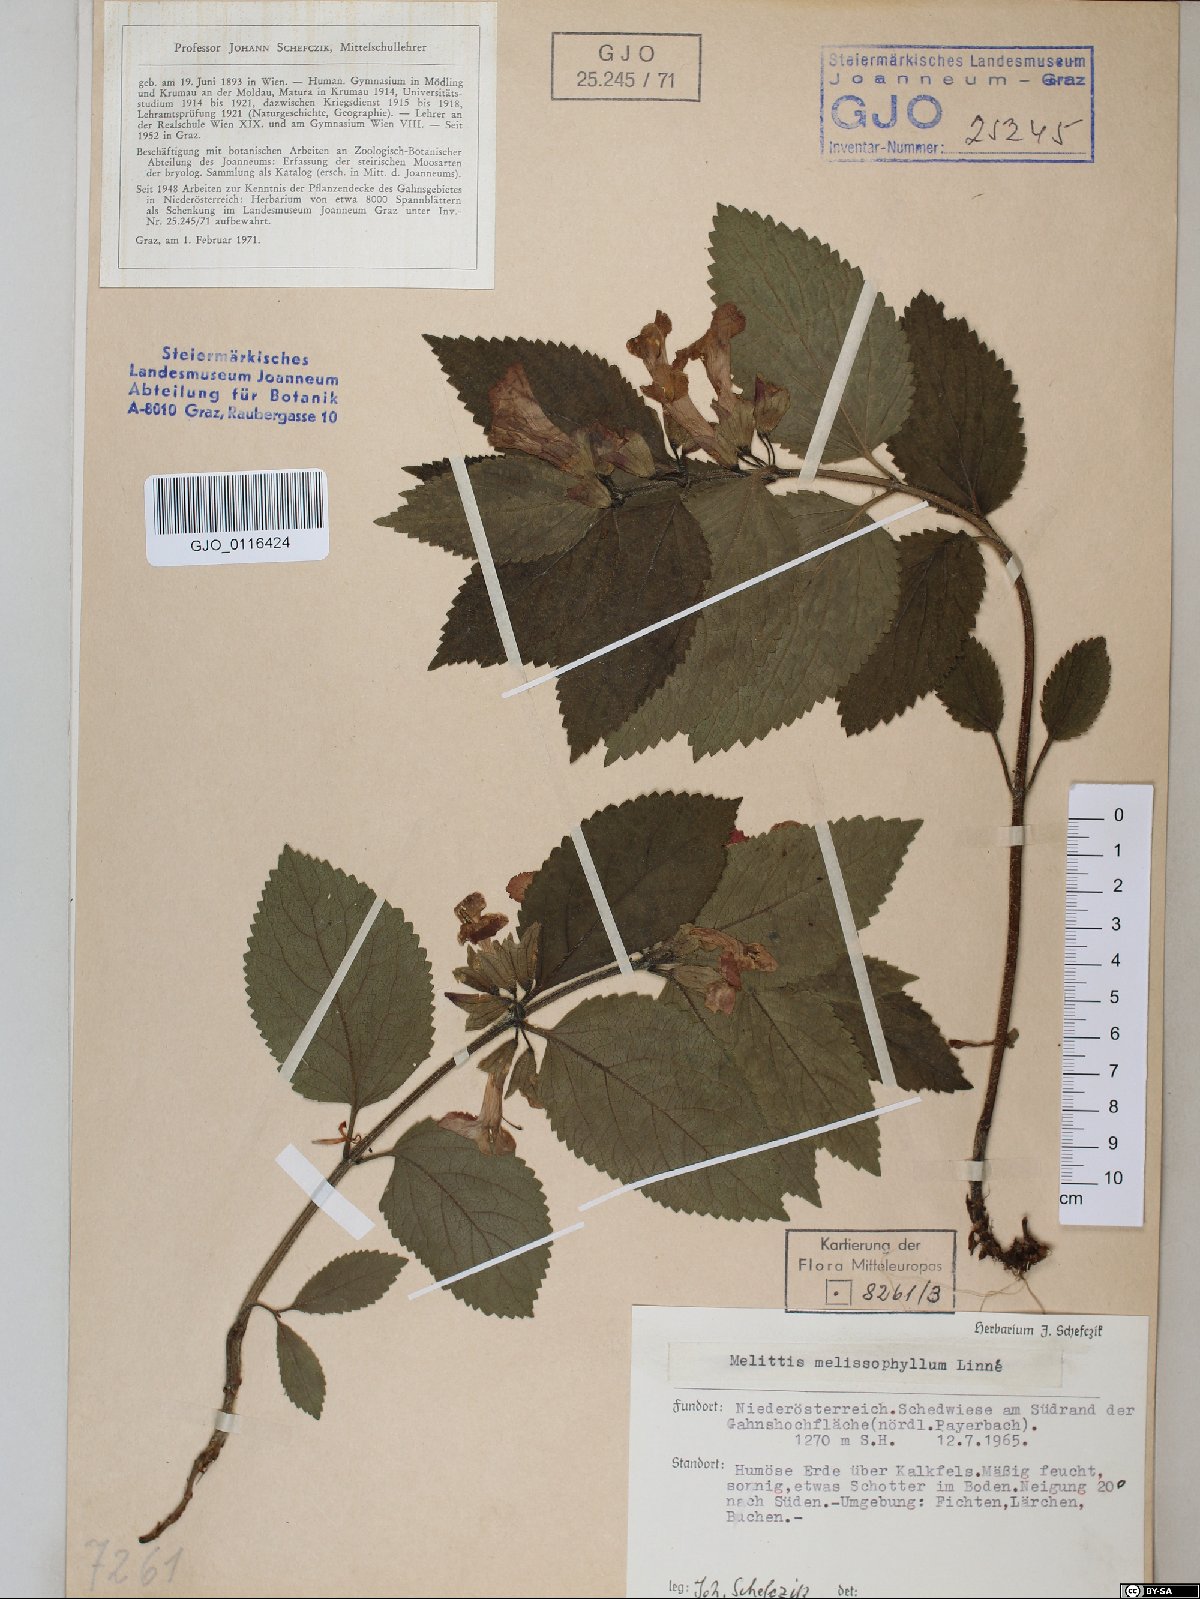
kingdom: Plantae
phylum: Tracheophyta
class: Magnoliopsida
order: Lamiales
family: Lamiaceae
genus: Melittis
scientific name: Melittis melissophyllum
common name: Bastard balm
